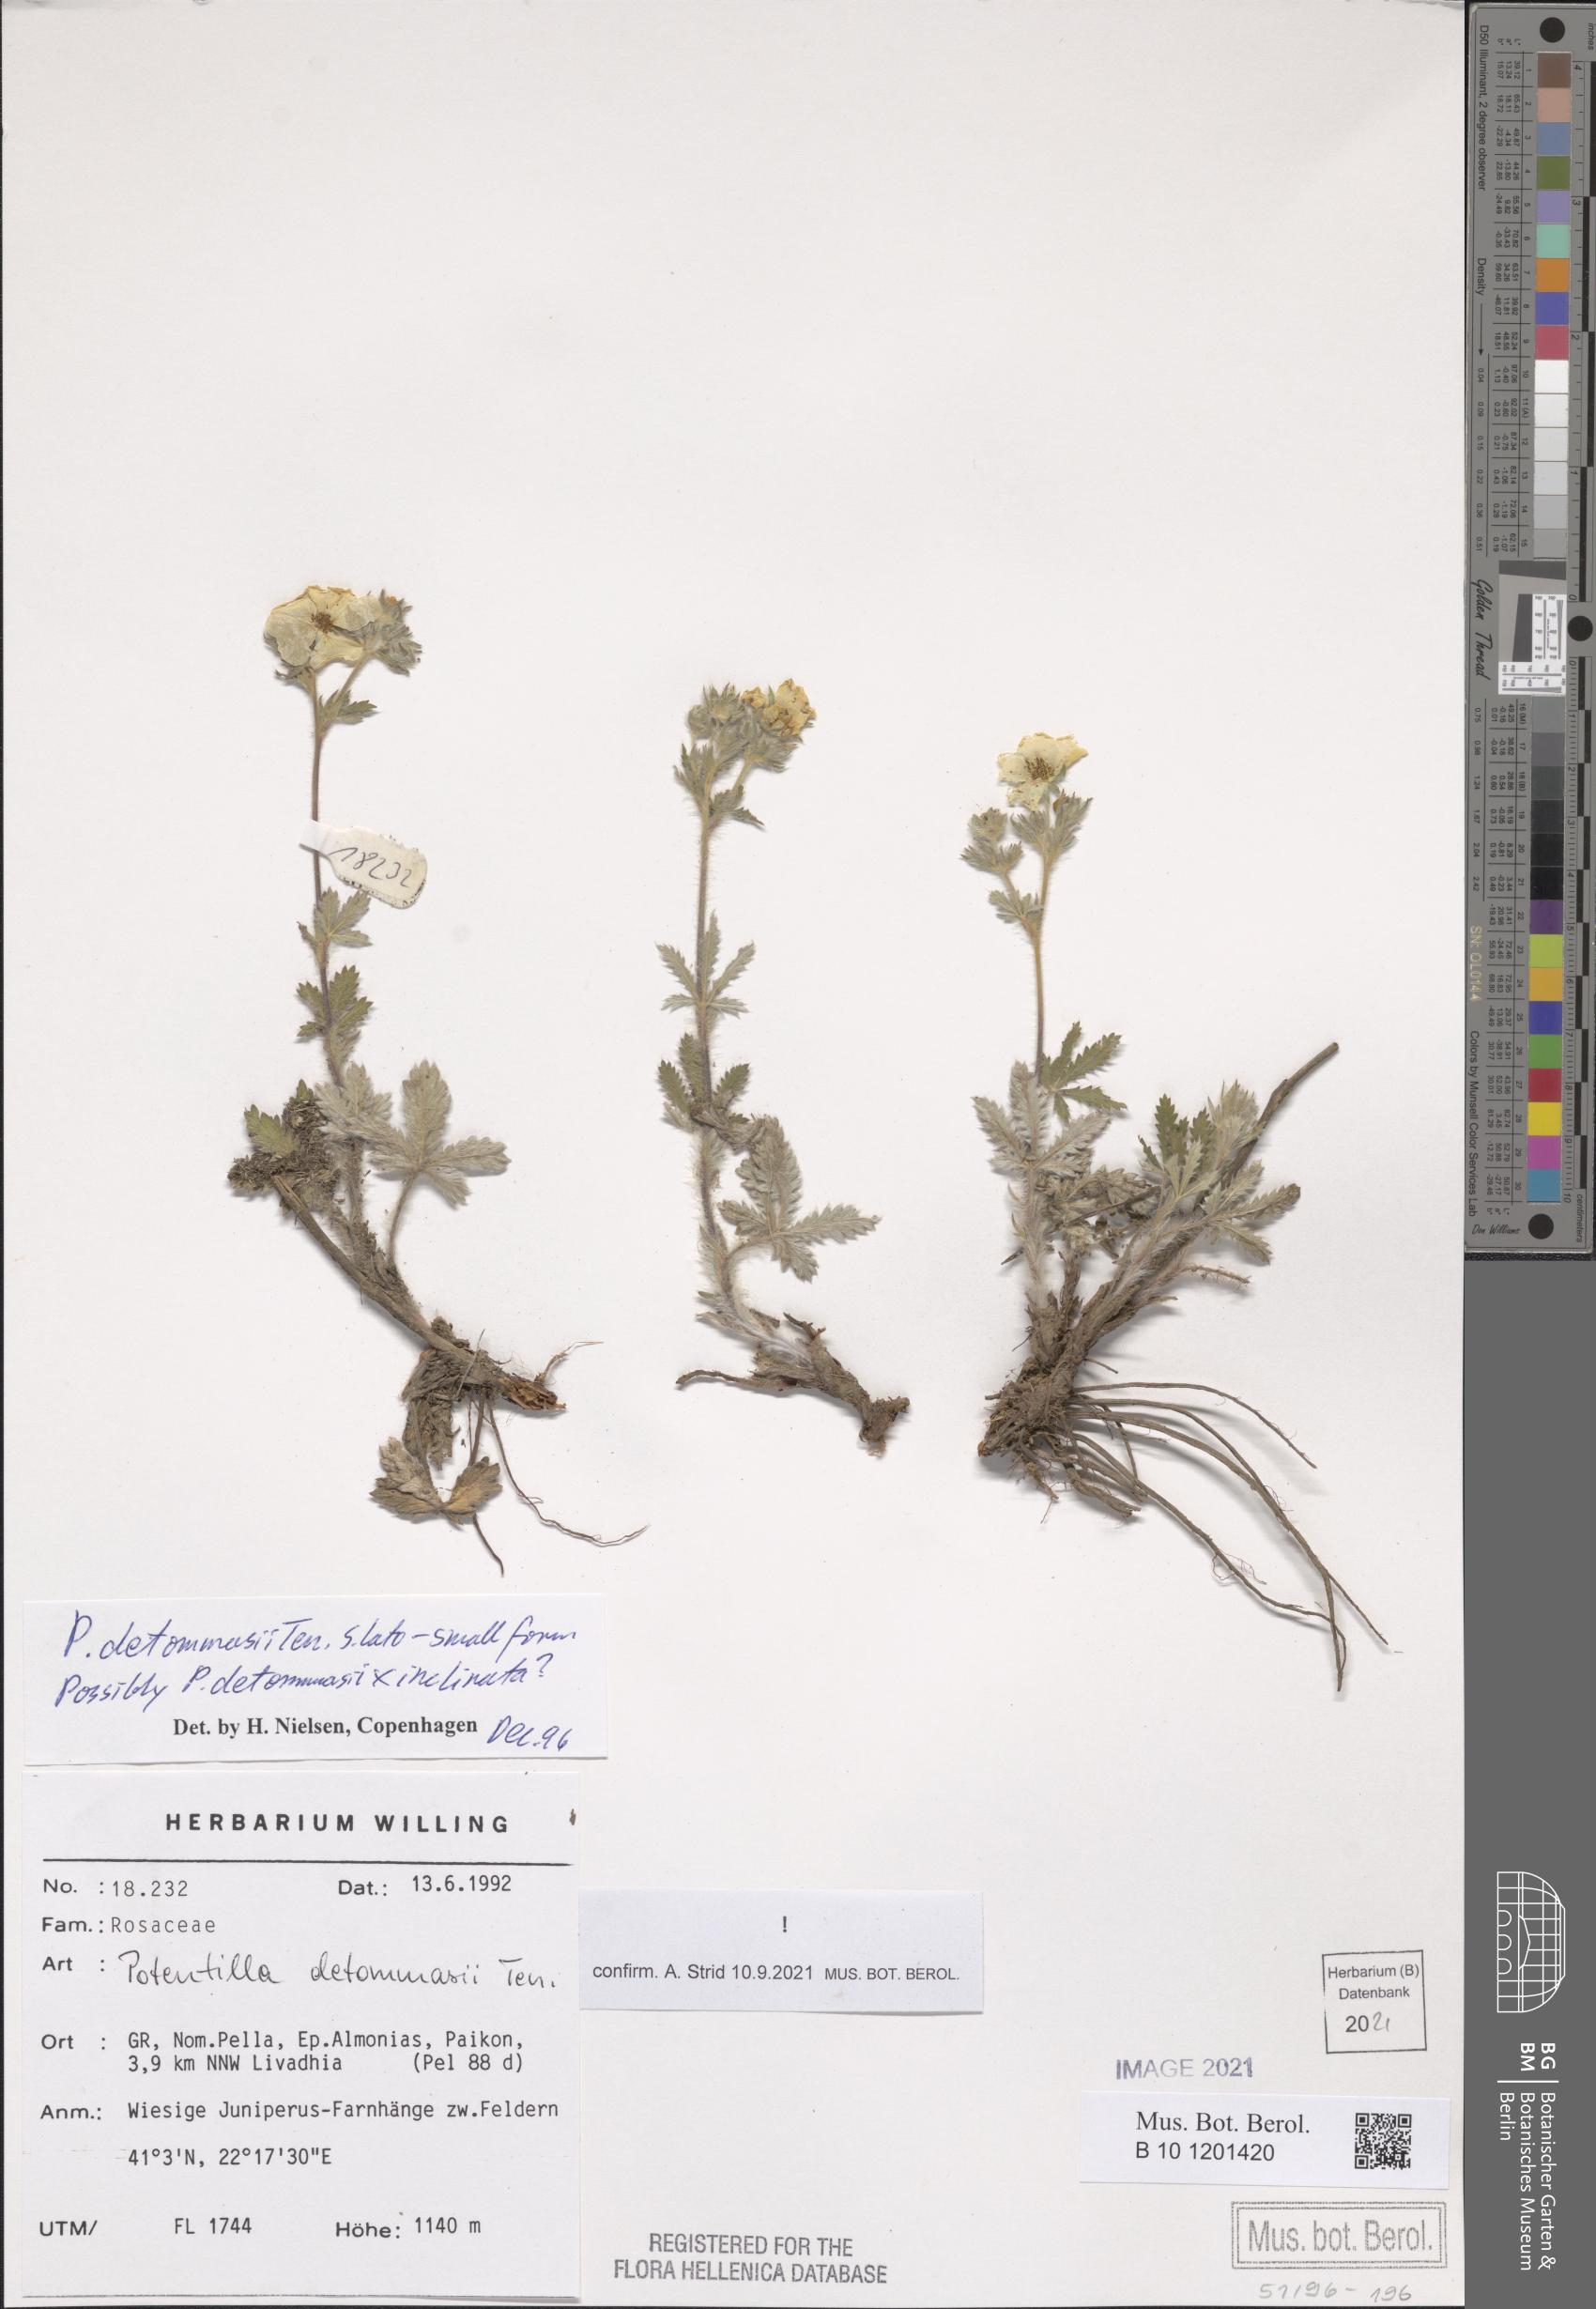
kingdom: Plantae
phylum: Tracheophyta
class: Magnoliopsida
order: Rosales
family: Rosaceae
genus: Potentilla
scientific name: Potentilla detommasii
